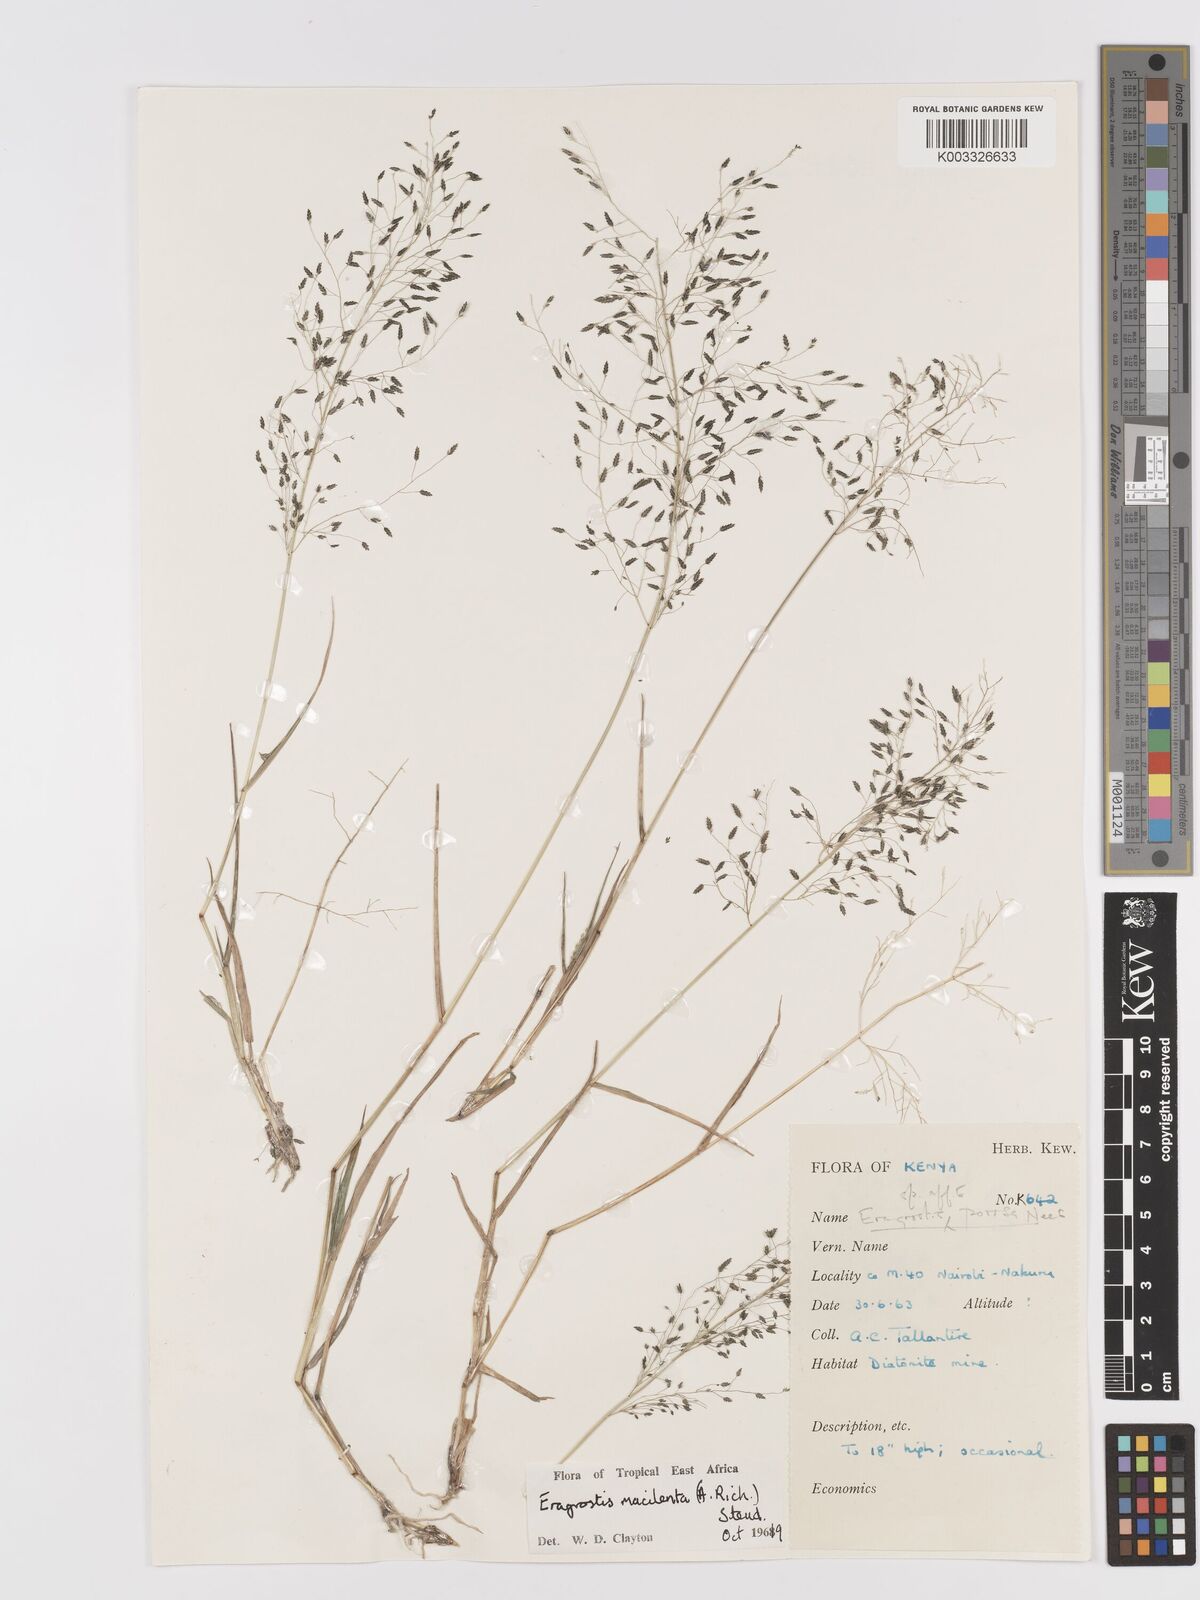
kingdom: Plantae
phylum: Tracheophyta
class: Liliopsida
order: Poales
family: Poaceae
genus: Eragrostis
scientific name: Eragrostis macilenta
